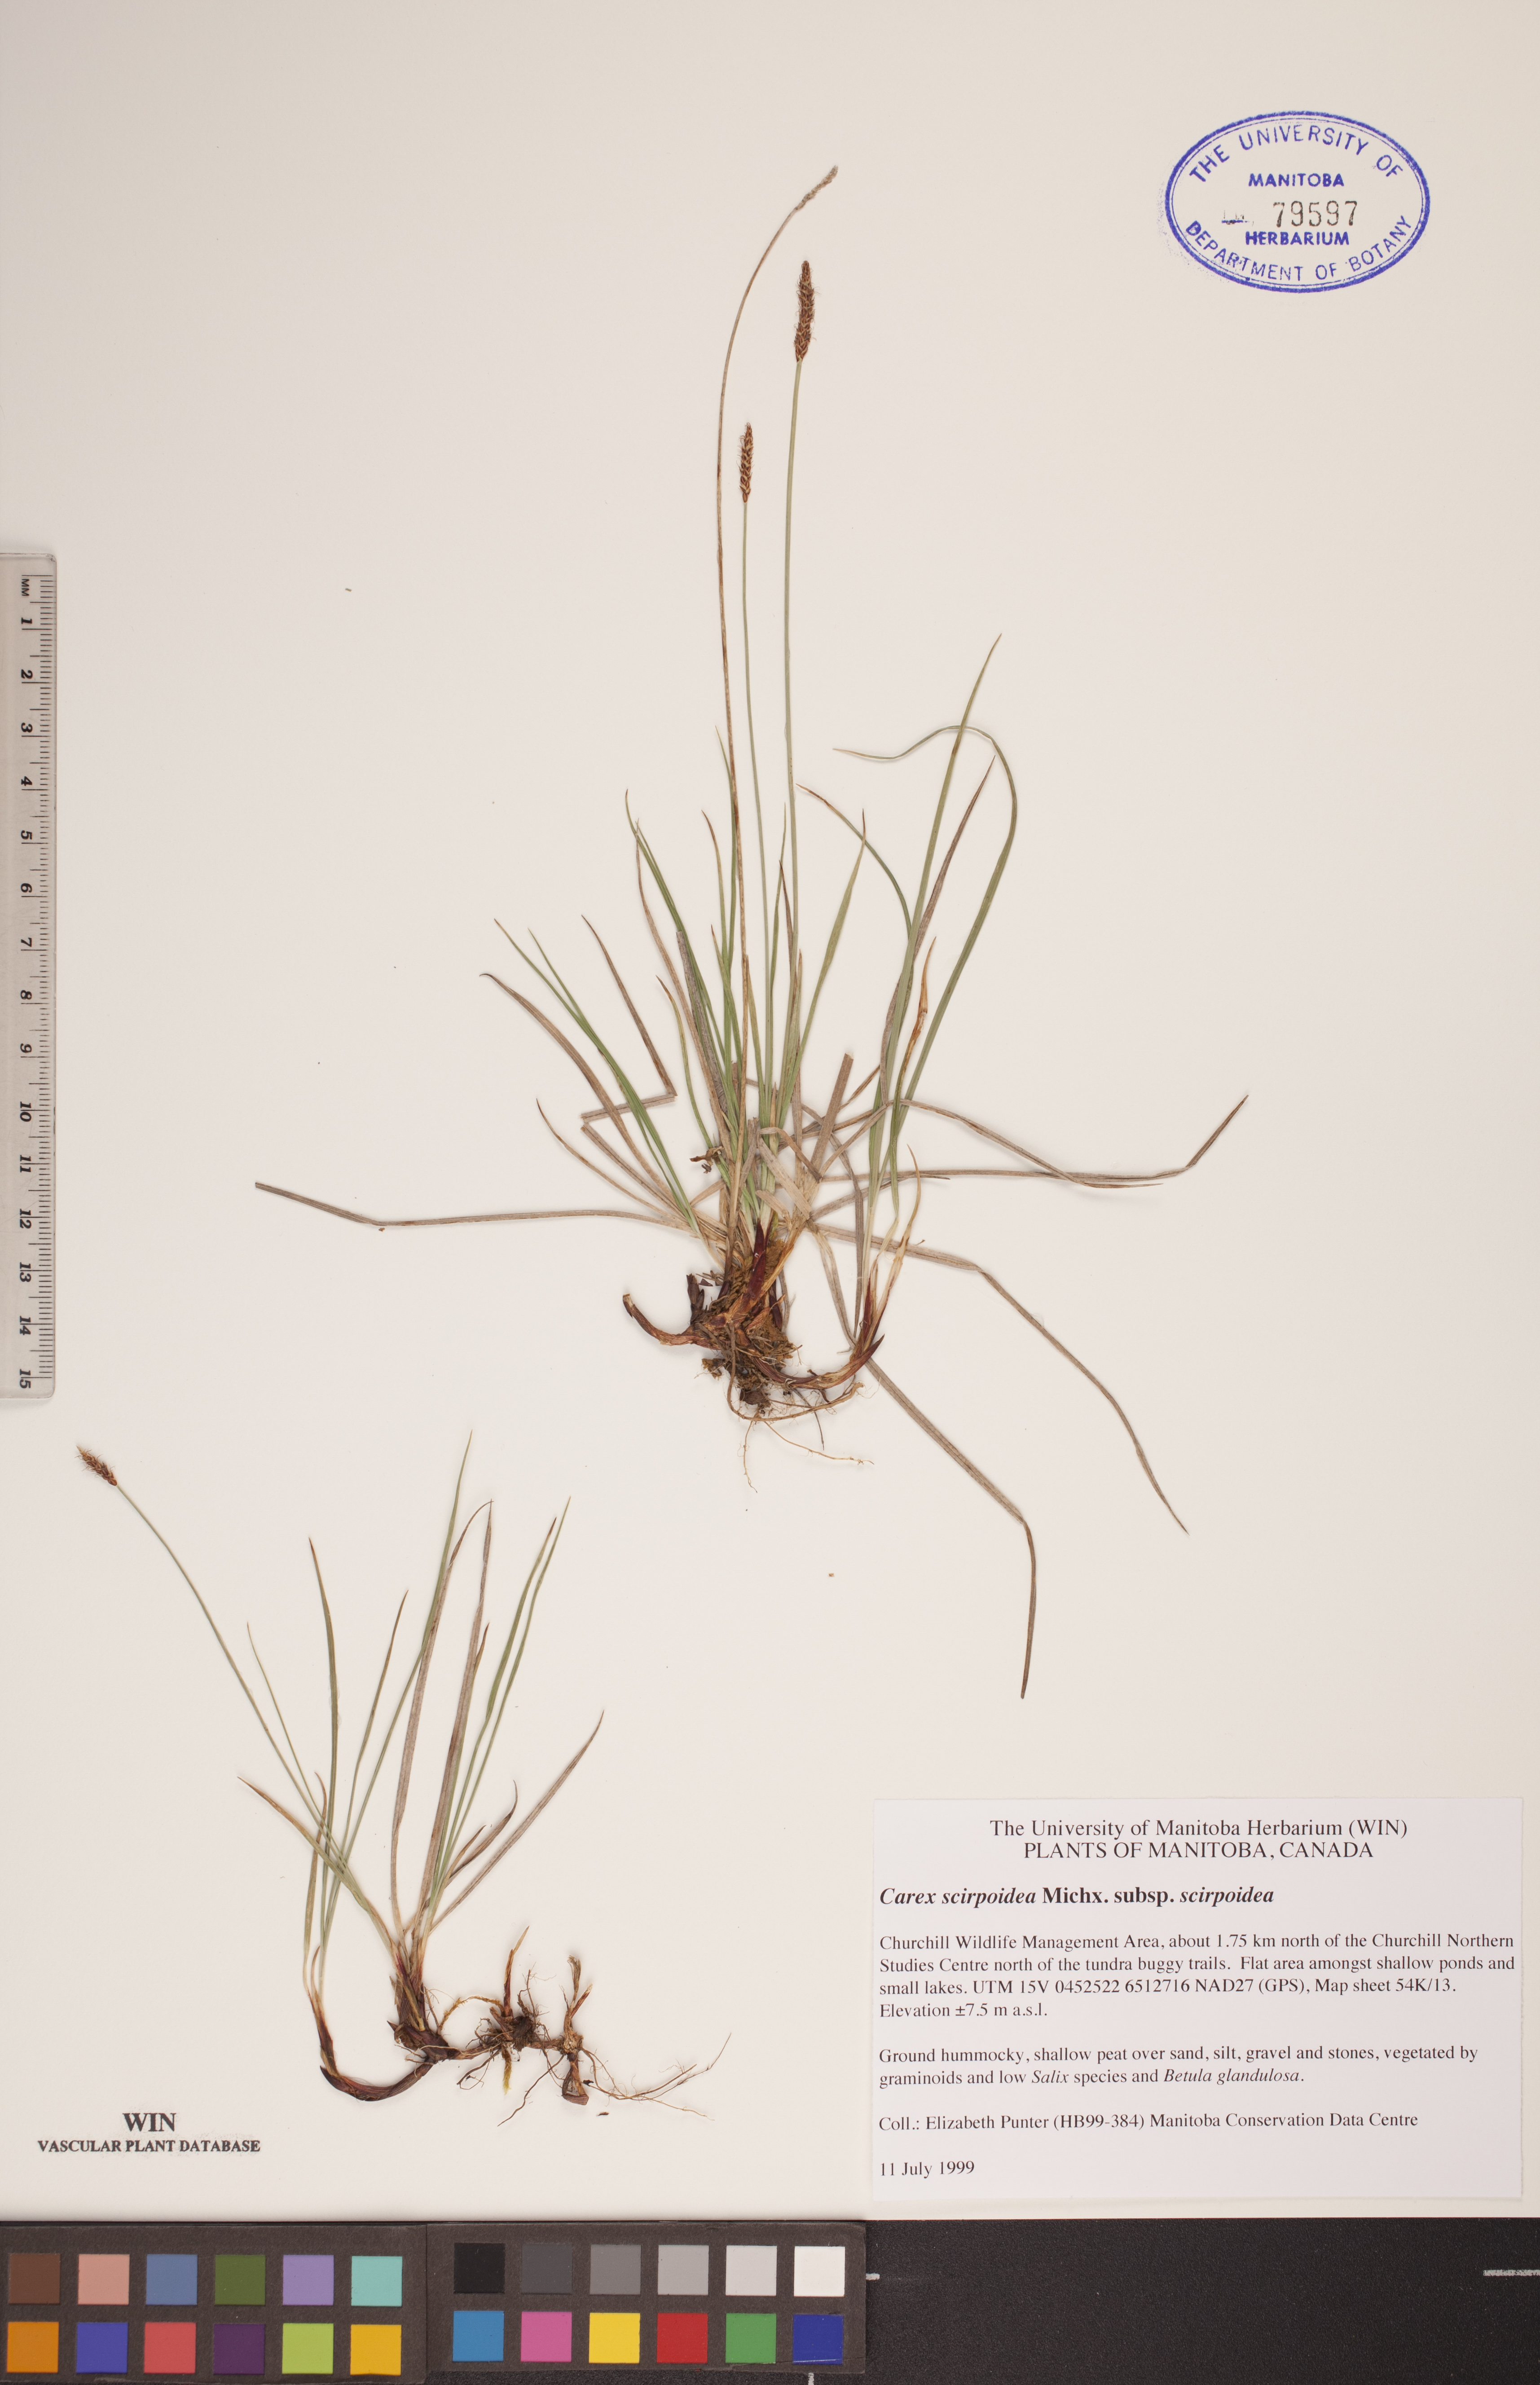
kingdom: Plantae
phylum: Tracheophyta
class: Liliopsida
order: Poales
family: Cyperaceae
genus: Carex
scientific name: Carex scirpoidea
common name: Canada single-spike sedge
